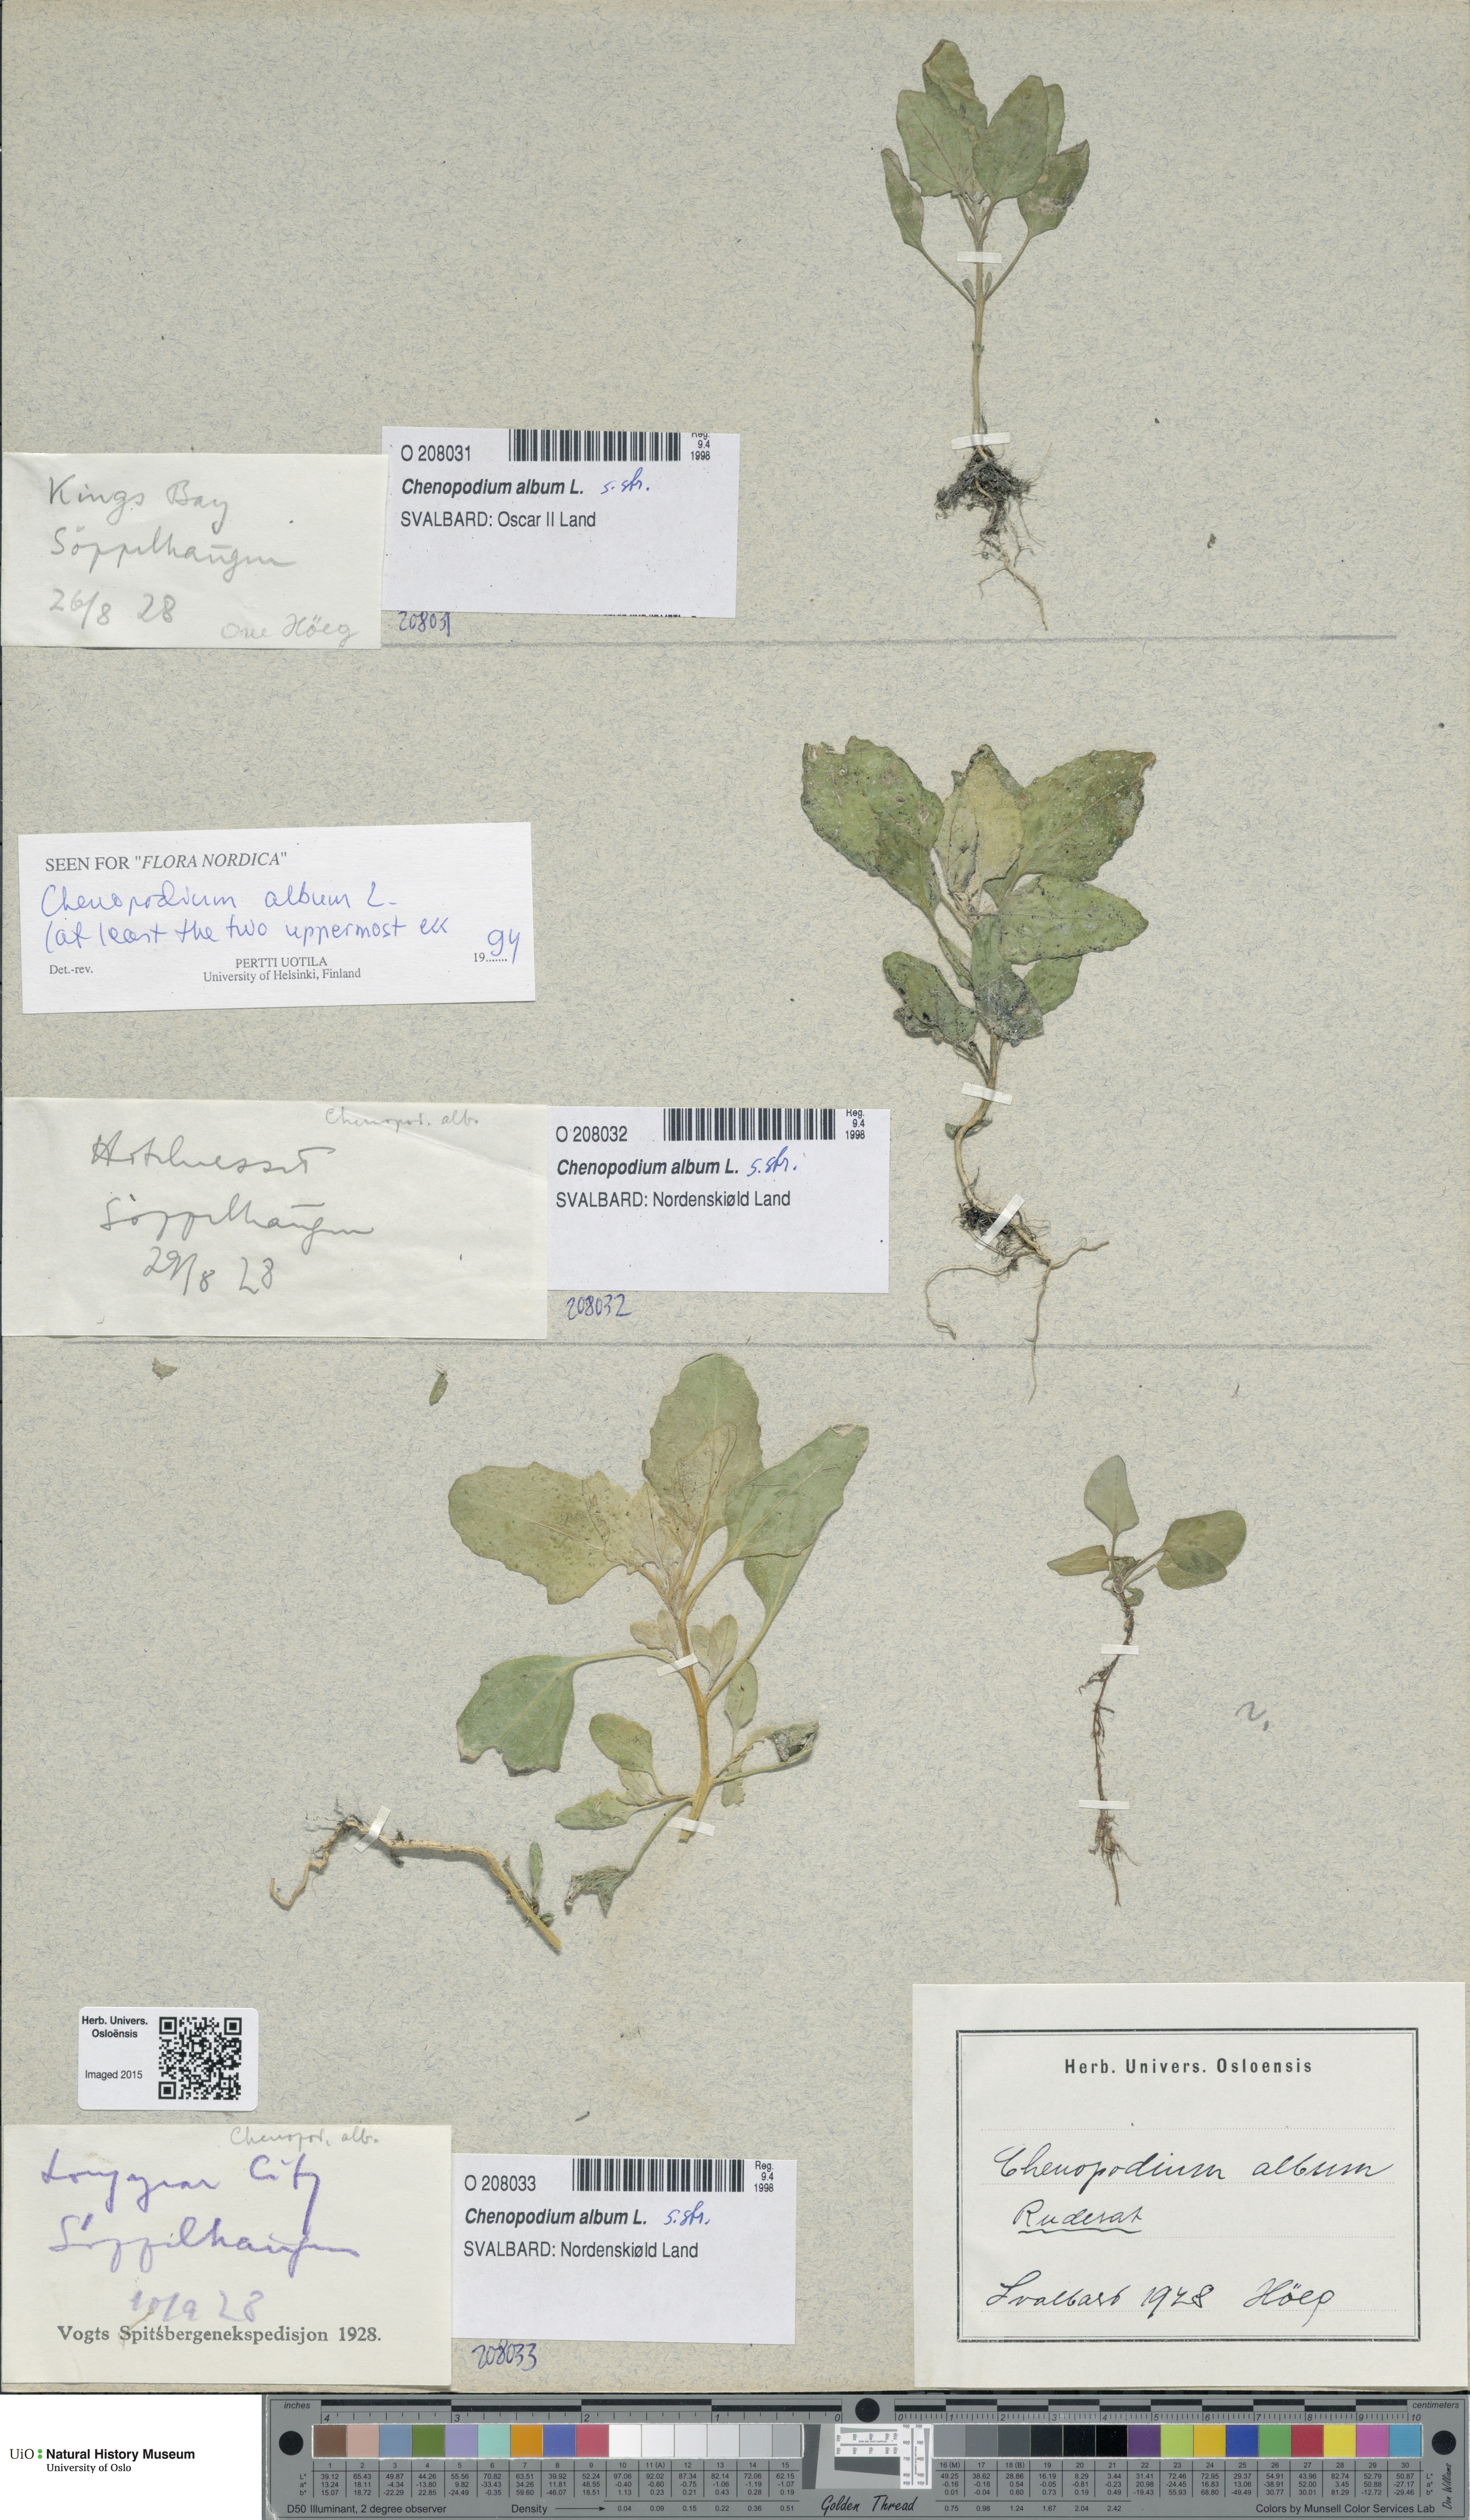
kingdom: Plantae
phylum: Tracheophyta
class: Magnoliopsida
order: Caryophyllales
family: Amaranthaceae
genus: Chenopodium
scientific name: Chenopodium album
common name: Fat-hen
